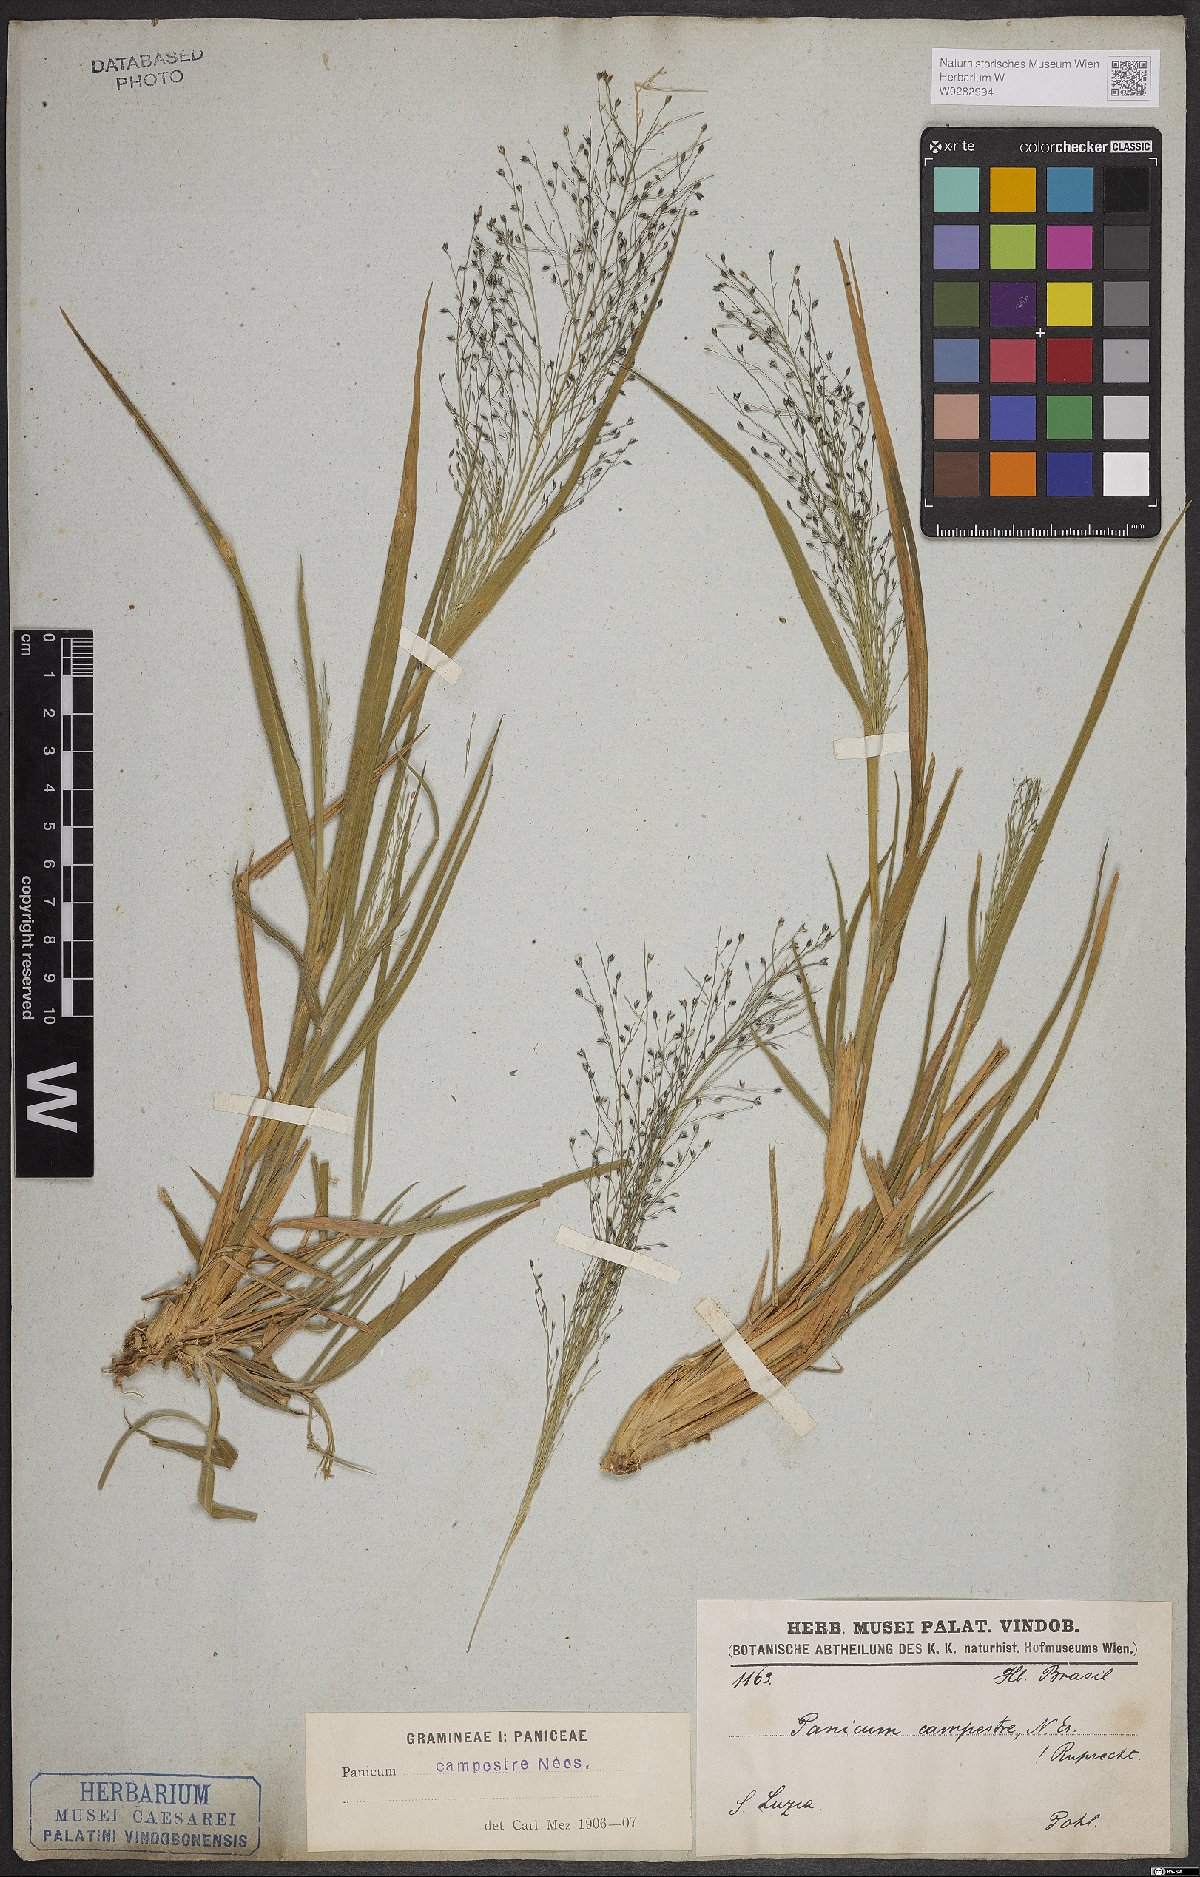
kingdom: Plantae
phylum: Tracheophyta
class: Liliopsida
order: Poales
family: Poaceae
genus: Panicum
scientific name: Panicum peladoense
